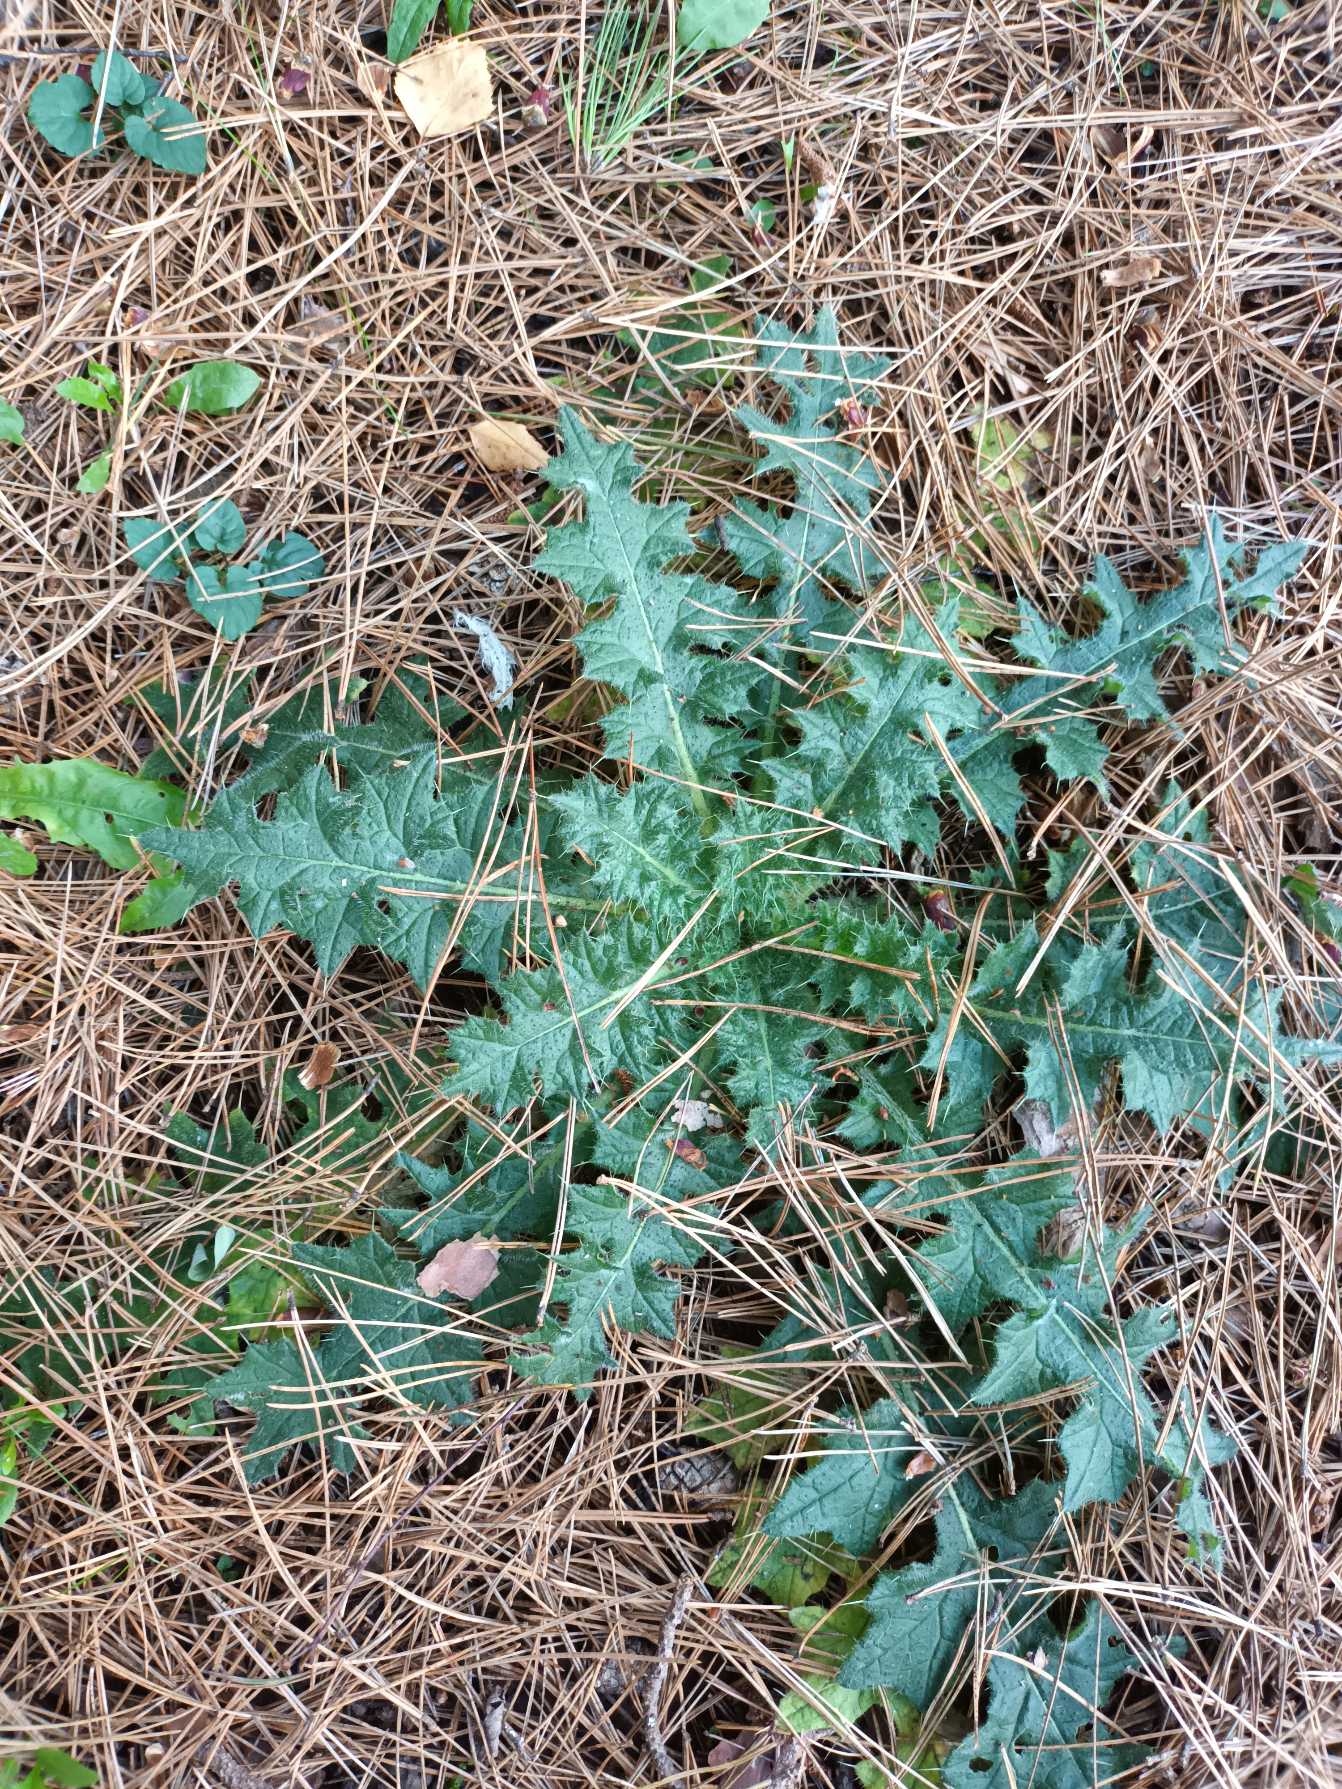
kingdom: Plantae
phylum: Tracheophyta
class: Magnoliopsida
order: Asterales
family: Asteraceae
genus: Cirsium
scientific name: Cirsium vulgare
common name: Horse-tidsel
